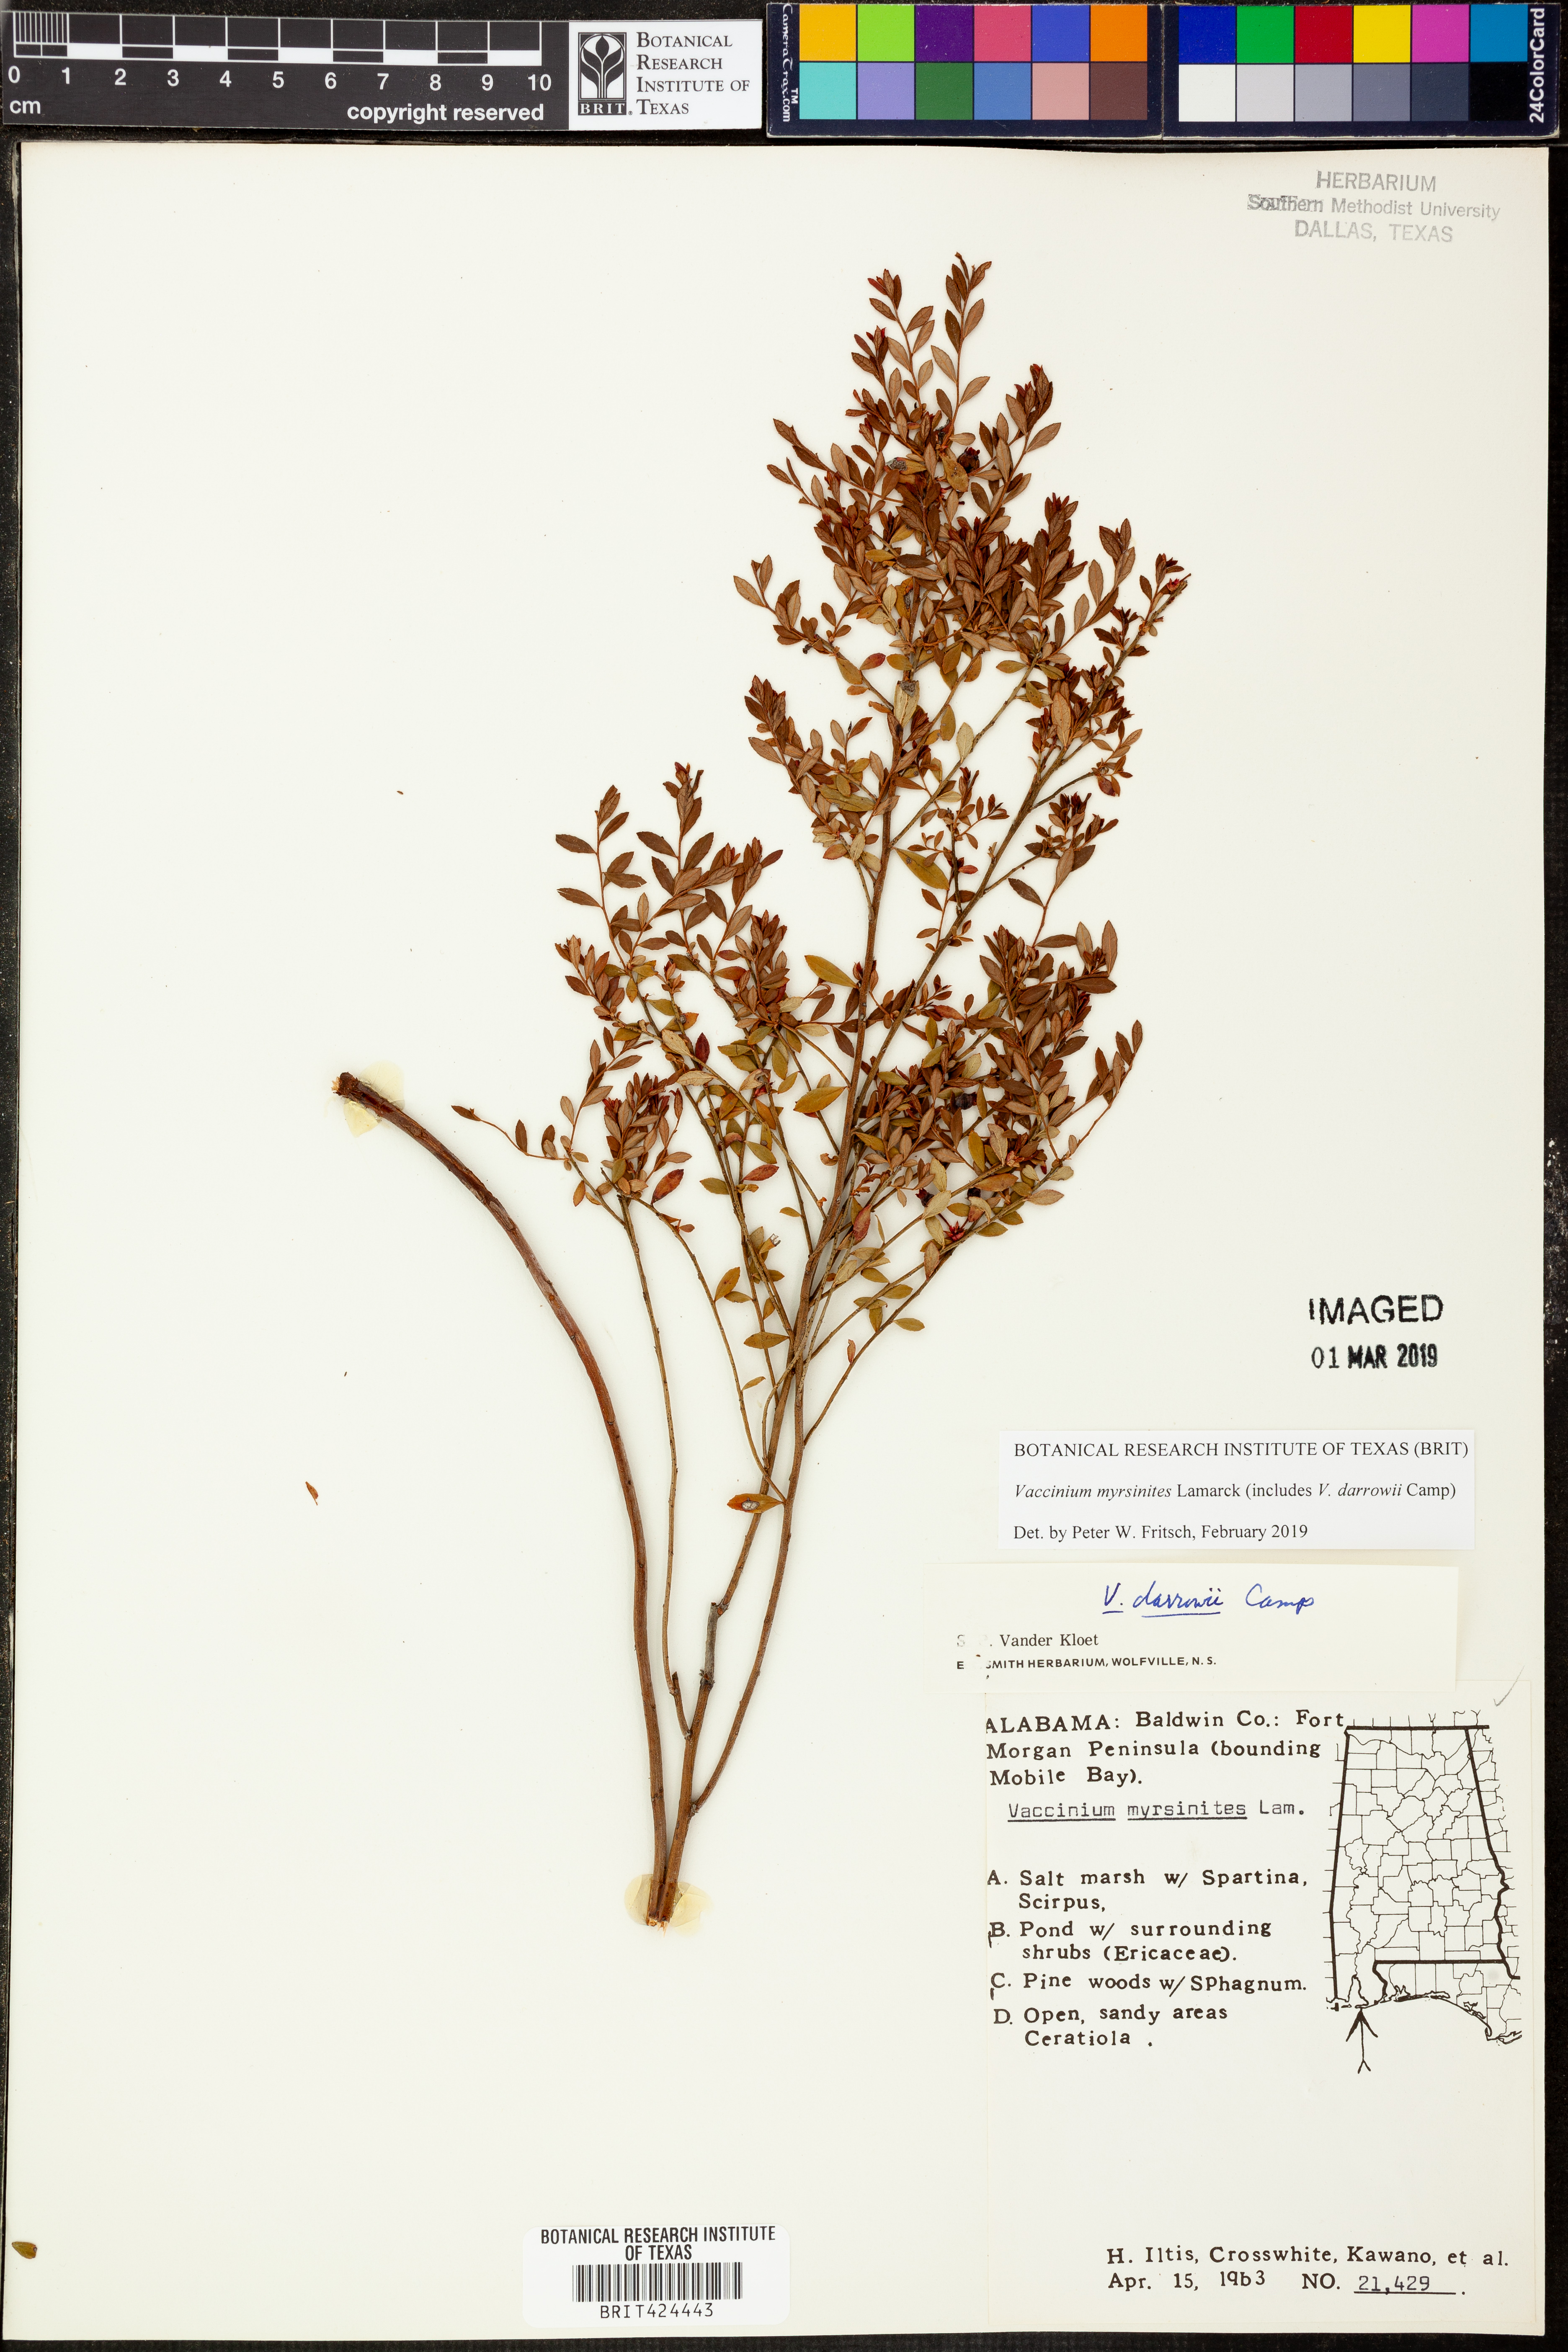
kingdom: Plantae
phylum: Tracheophyta
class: Magnoliopsida
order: Ericales
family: Ericaceae
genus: Vaccinium
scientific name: Vaccinium myrsinites
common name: Evergreen blueberry
